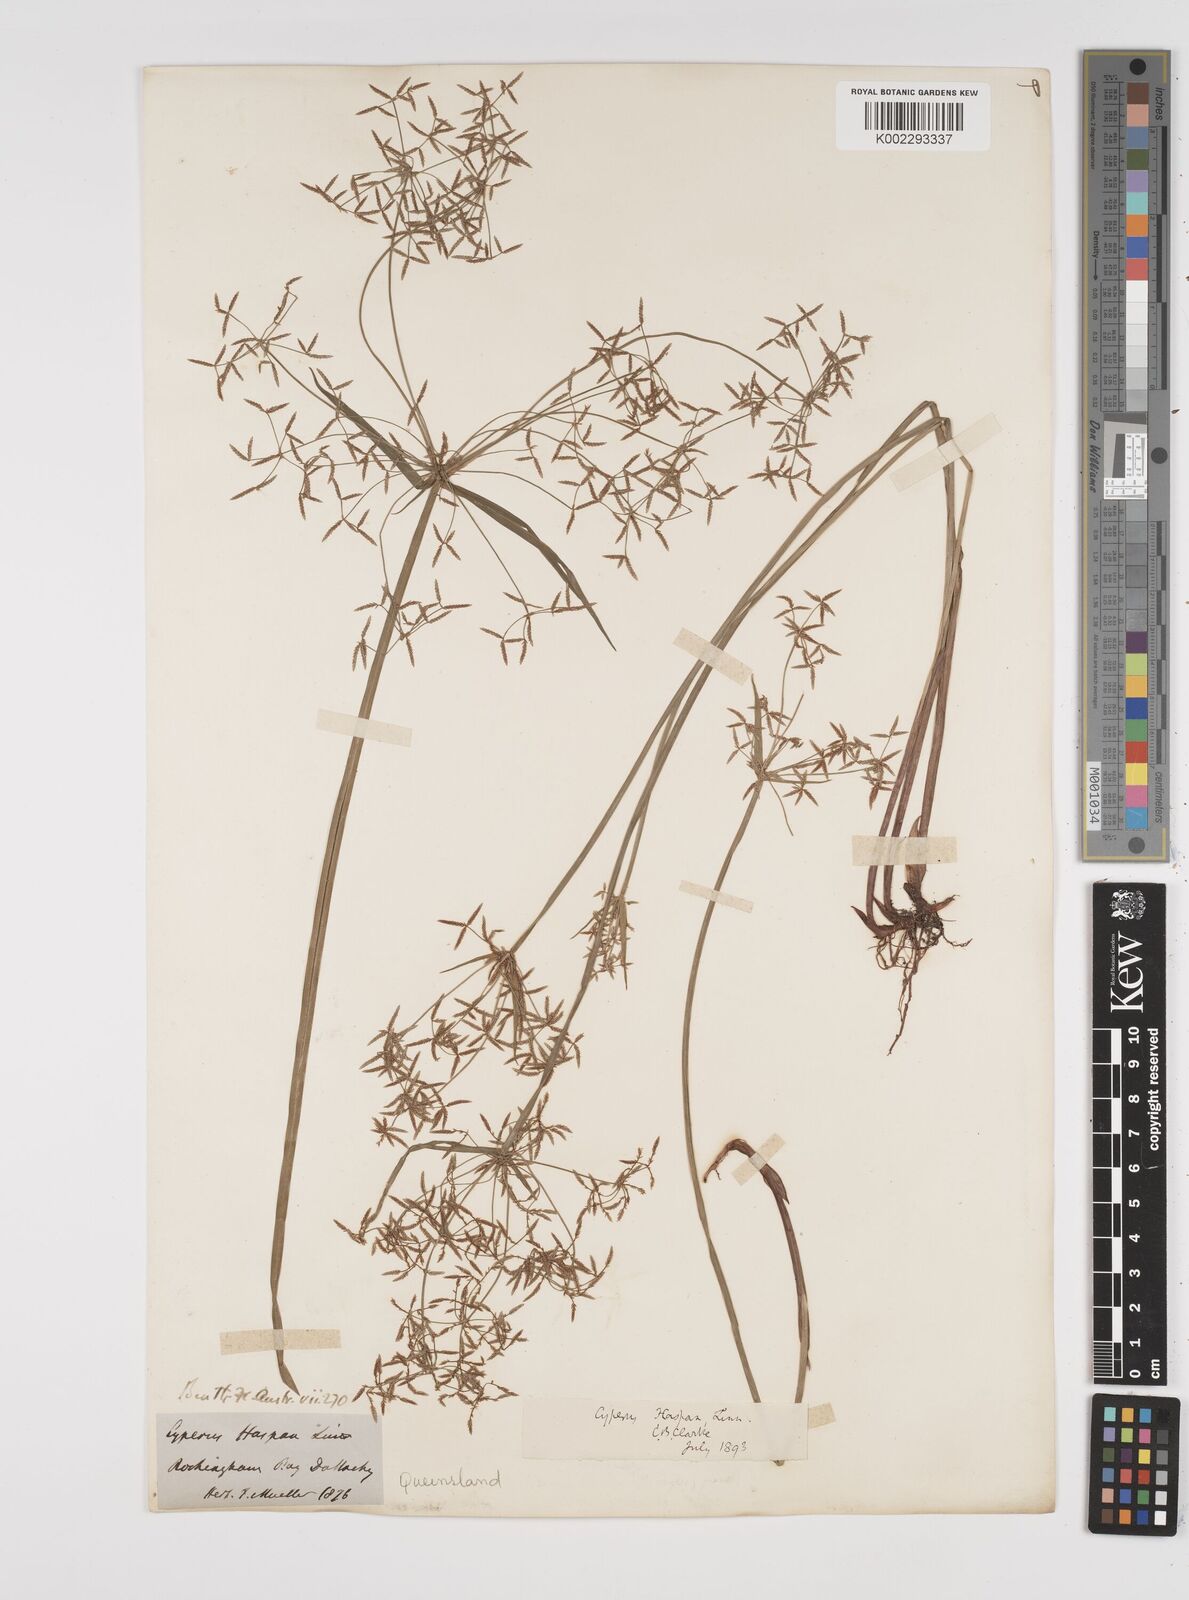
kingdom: Plantae
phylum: Tracheophyta
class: Liliopsida
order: Poales
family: Cyperaceae
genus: Cyperus
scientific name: Cyperus haspan
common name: Haspan flatsedge
